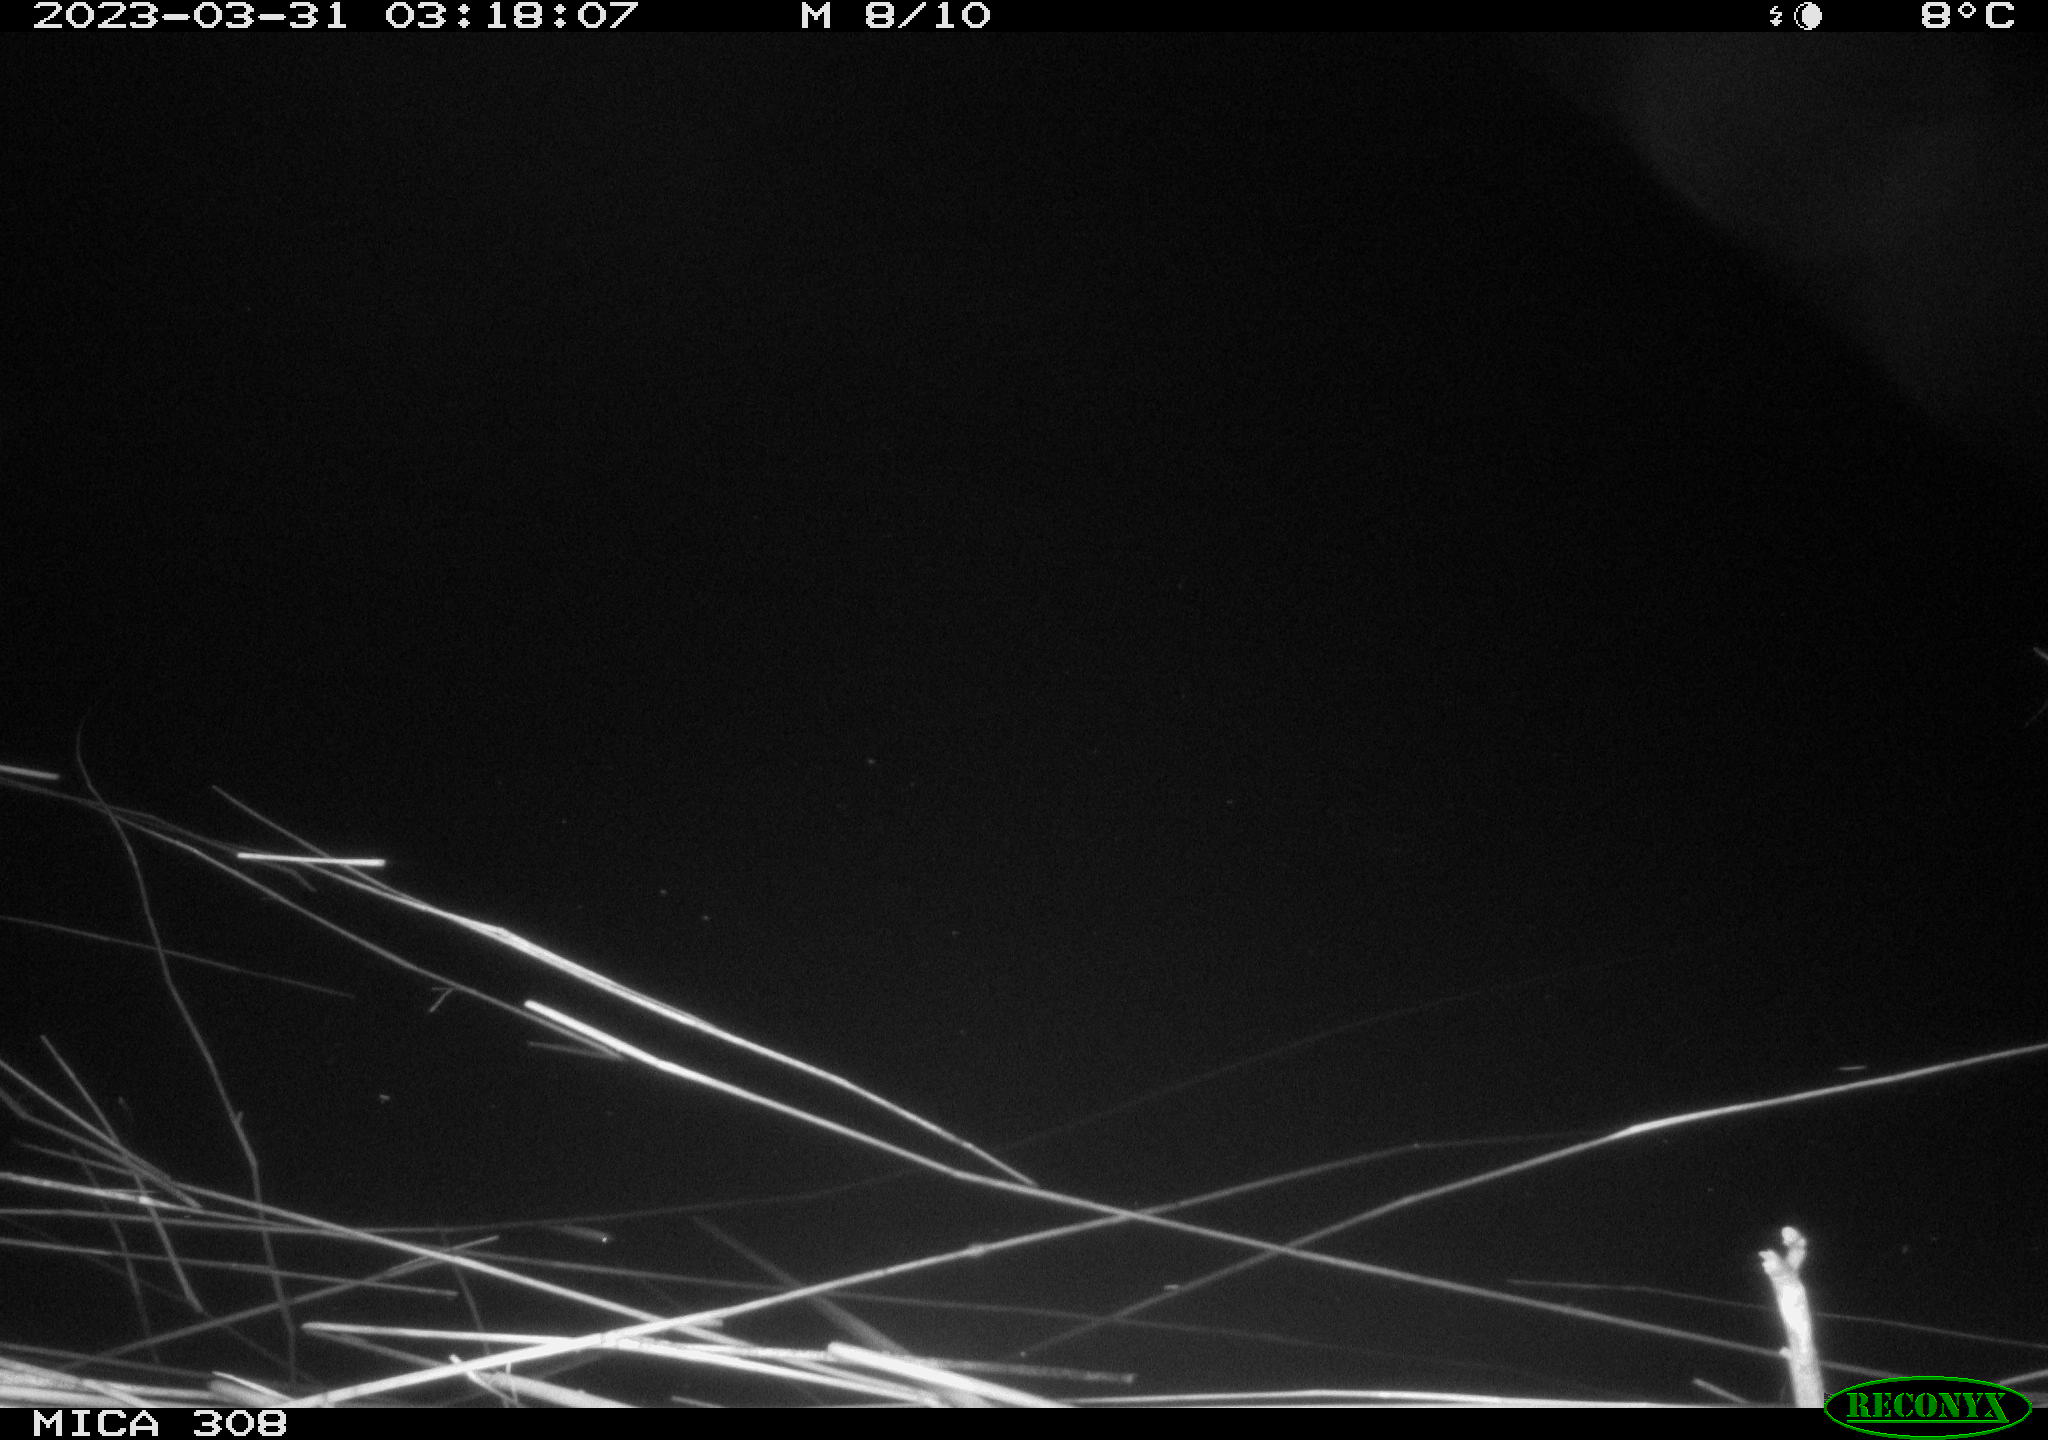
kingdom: Animalia
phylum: Chordata
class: Aves
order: Anseriformes
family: Anatidae
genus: Anas
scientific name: Anas
